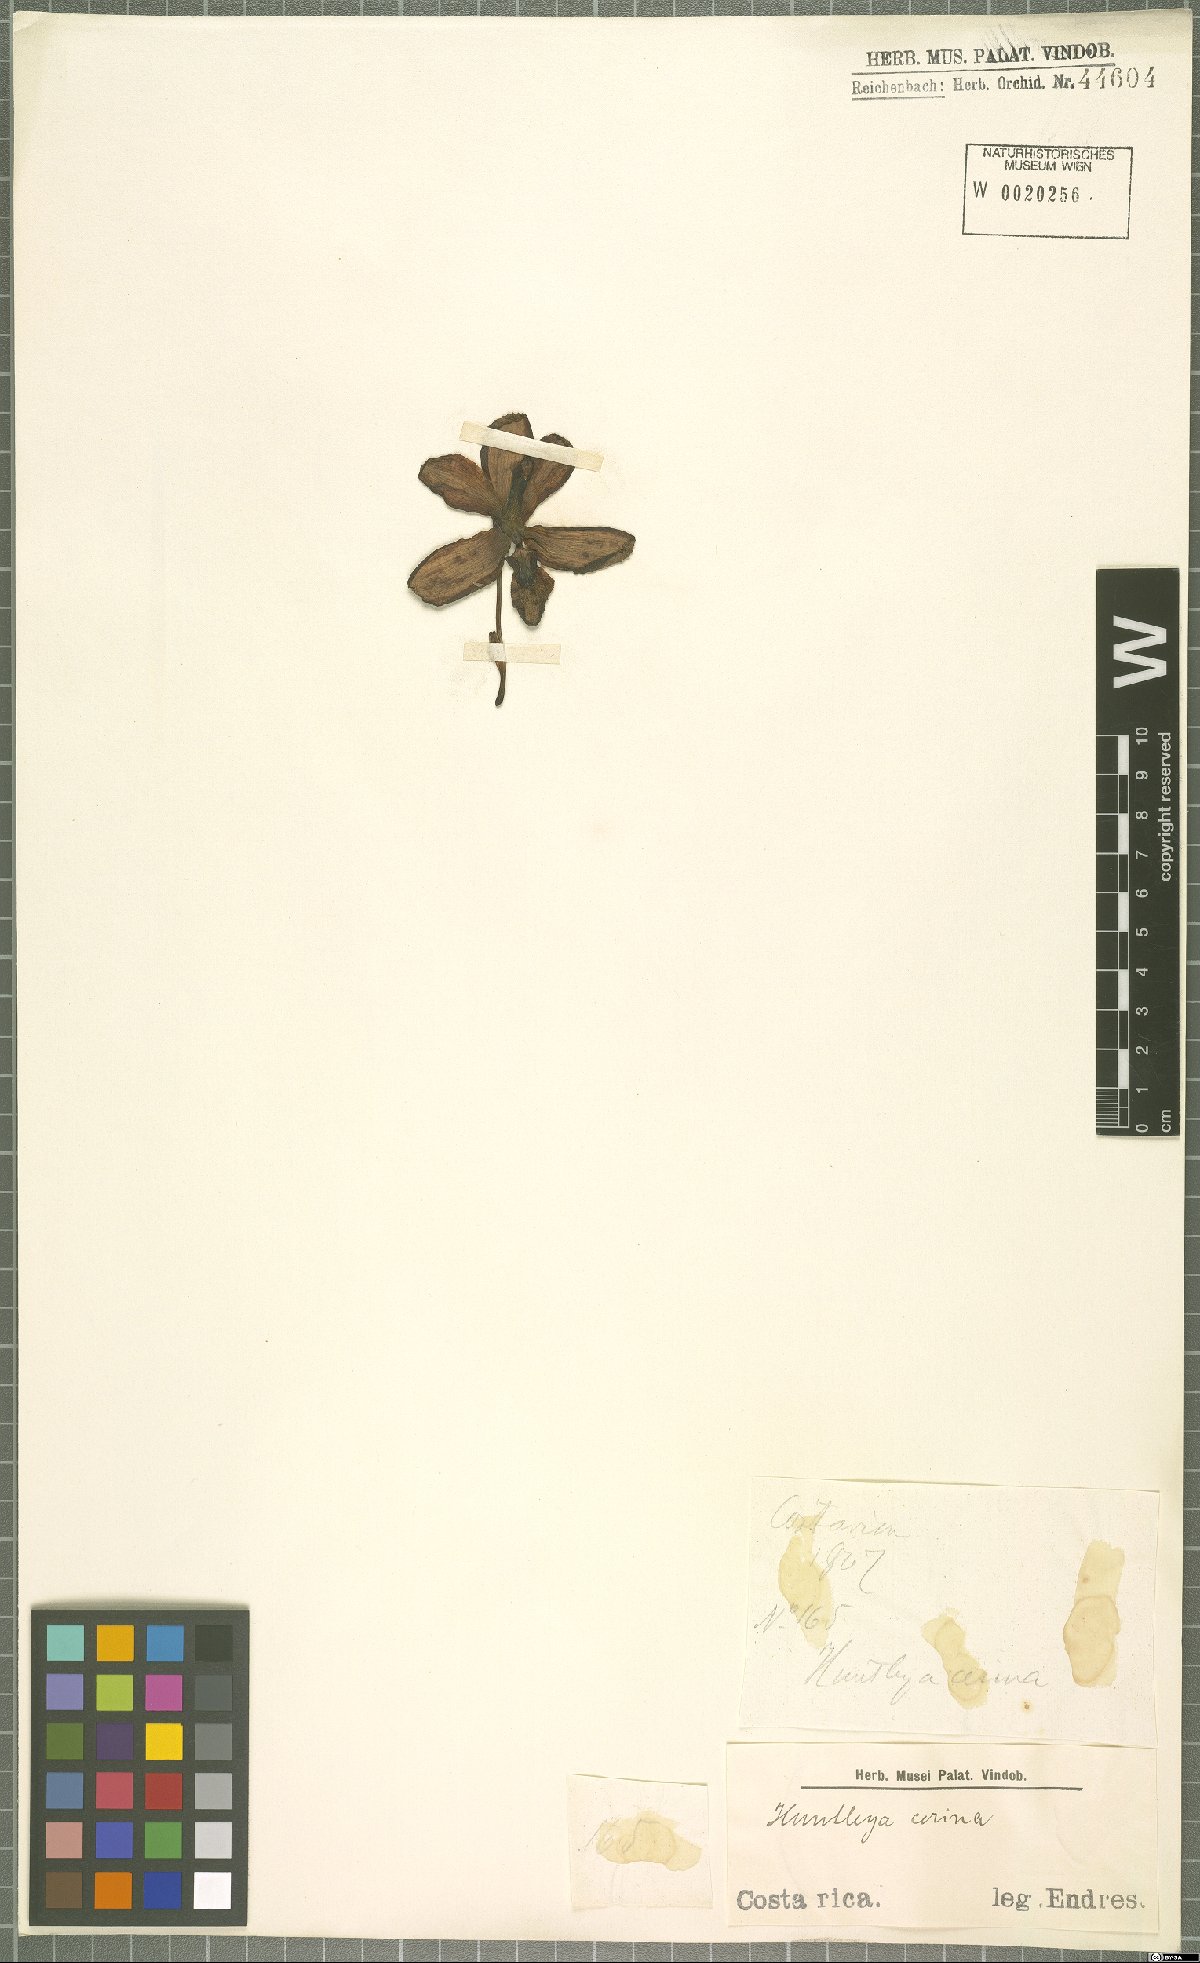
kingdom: Plantae
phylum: Tracheophyta
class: Liliopsida
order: Asparagales
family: Orchidaceae
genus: Pescatoria
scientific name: Pescatoria cerina
